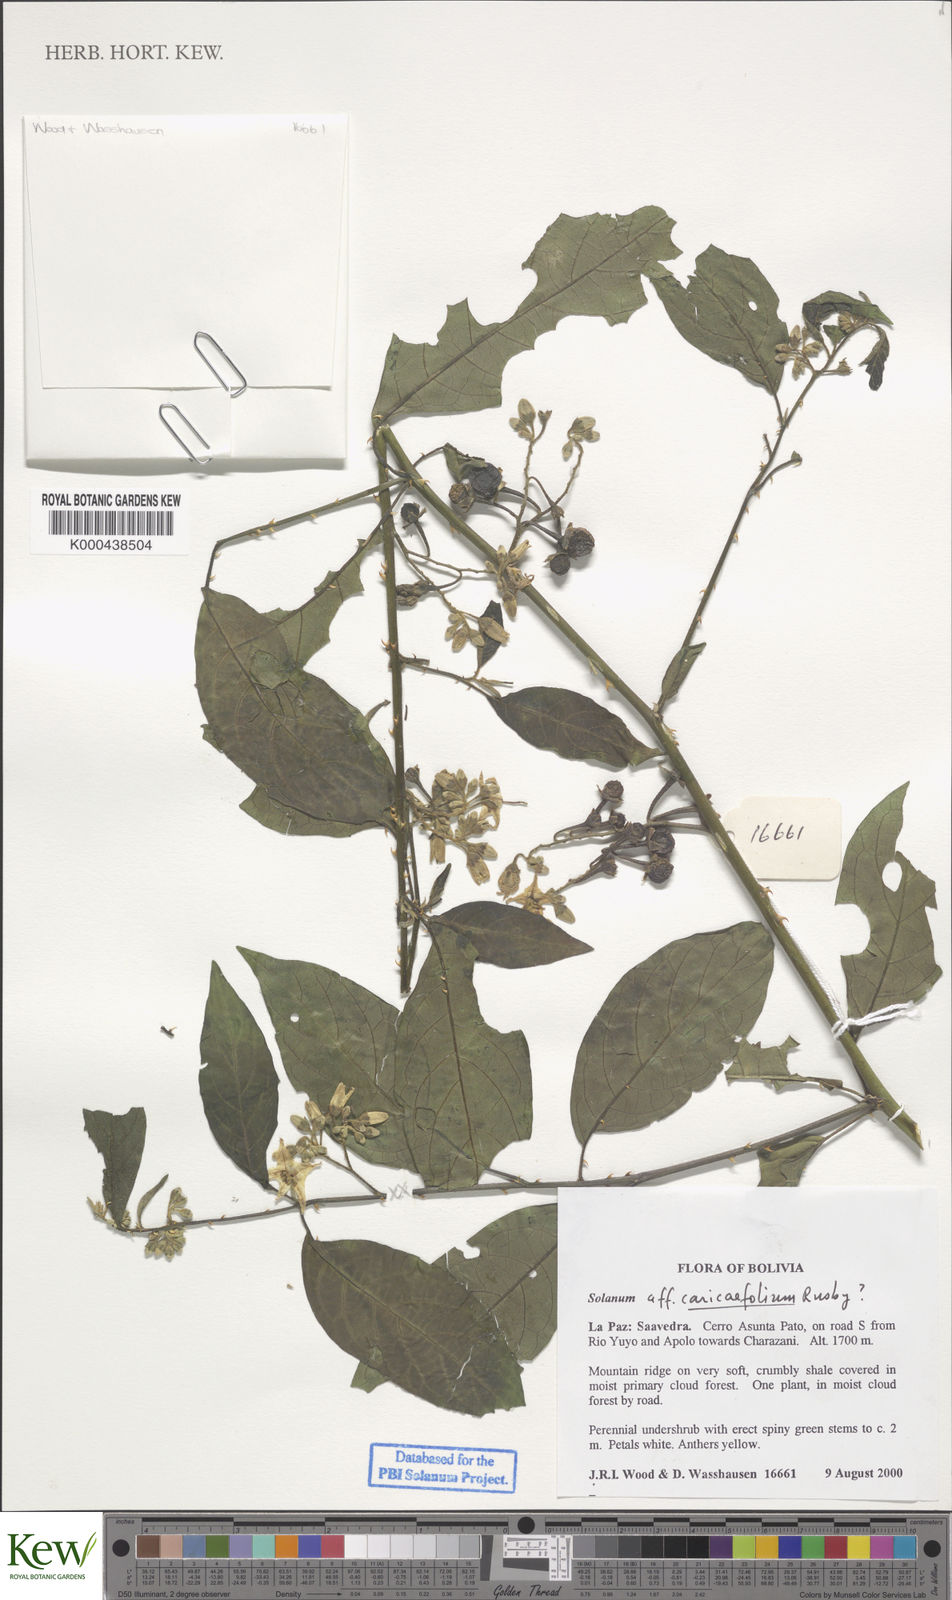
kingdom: Plantae
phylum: Tracheophyta
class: Magnoliopsida
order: Solanales
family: Solanaceae
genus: Solanum
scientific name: Solanum caricaefolium
